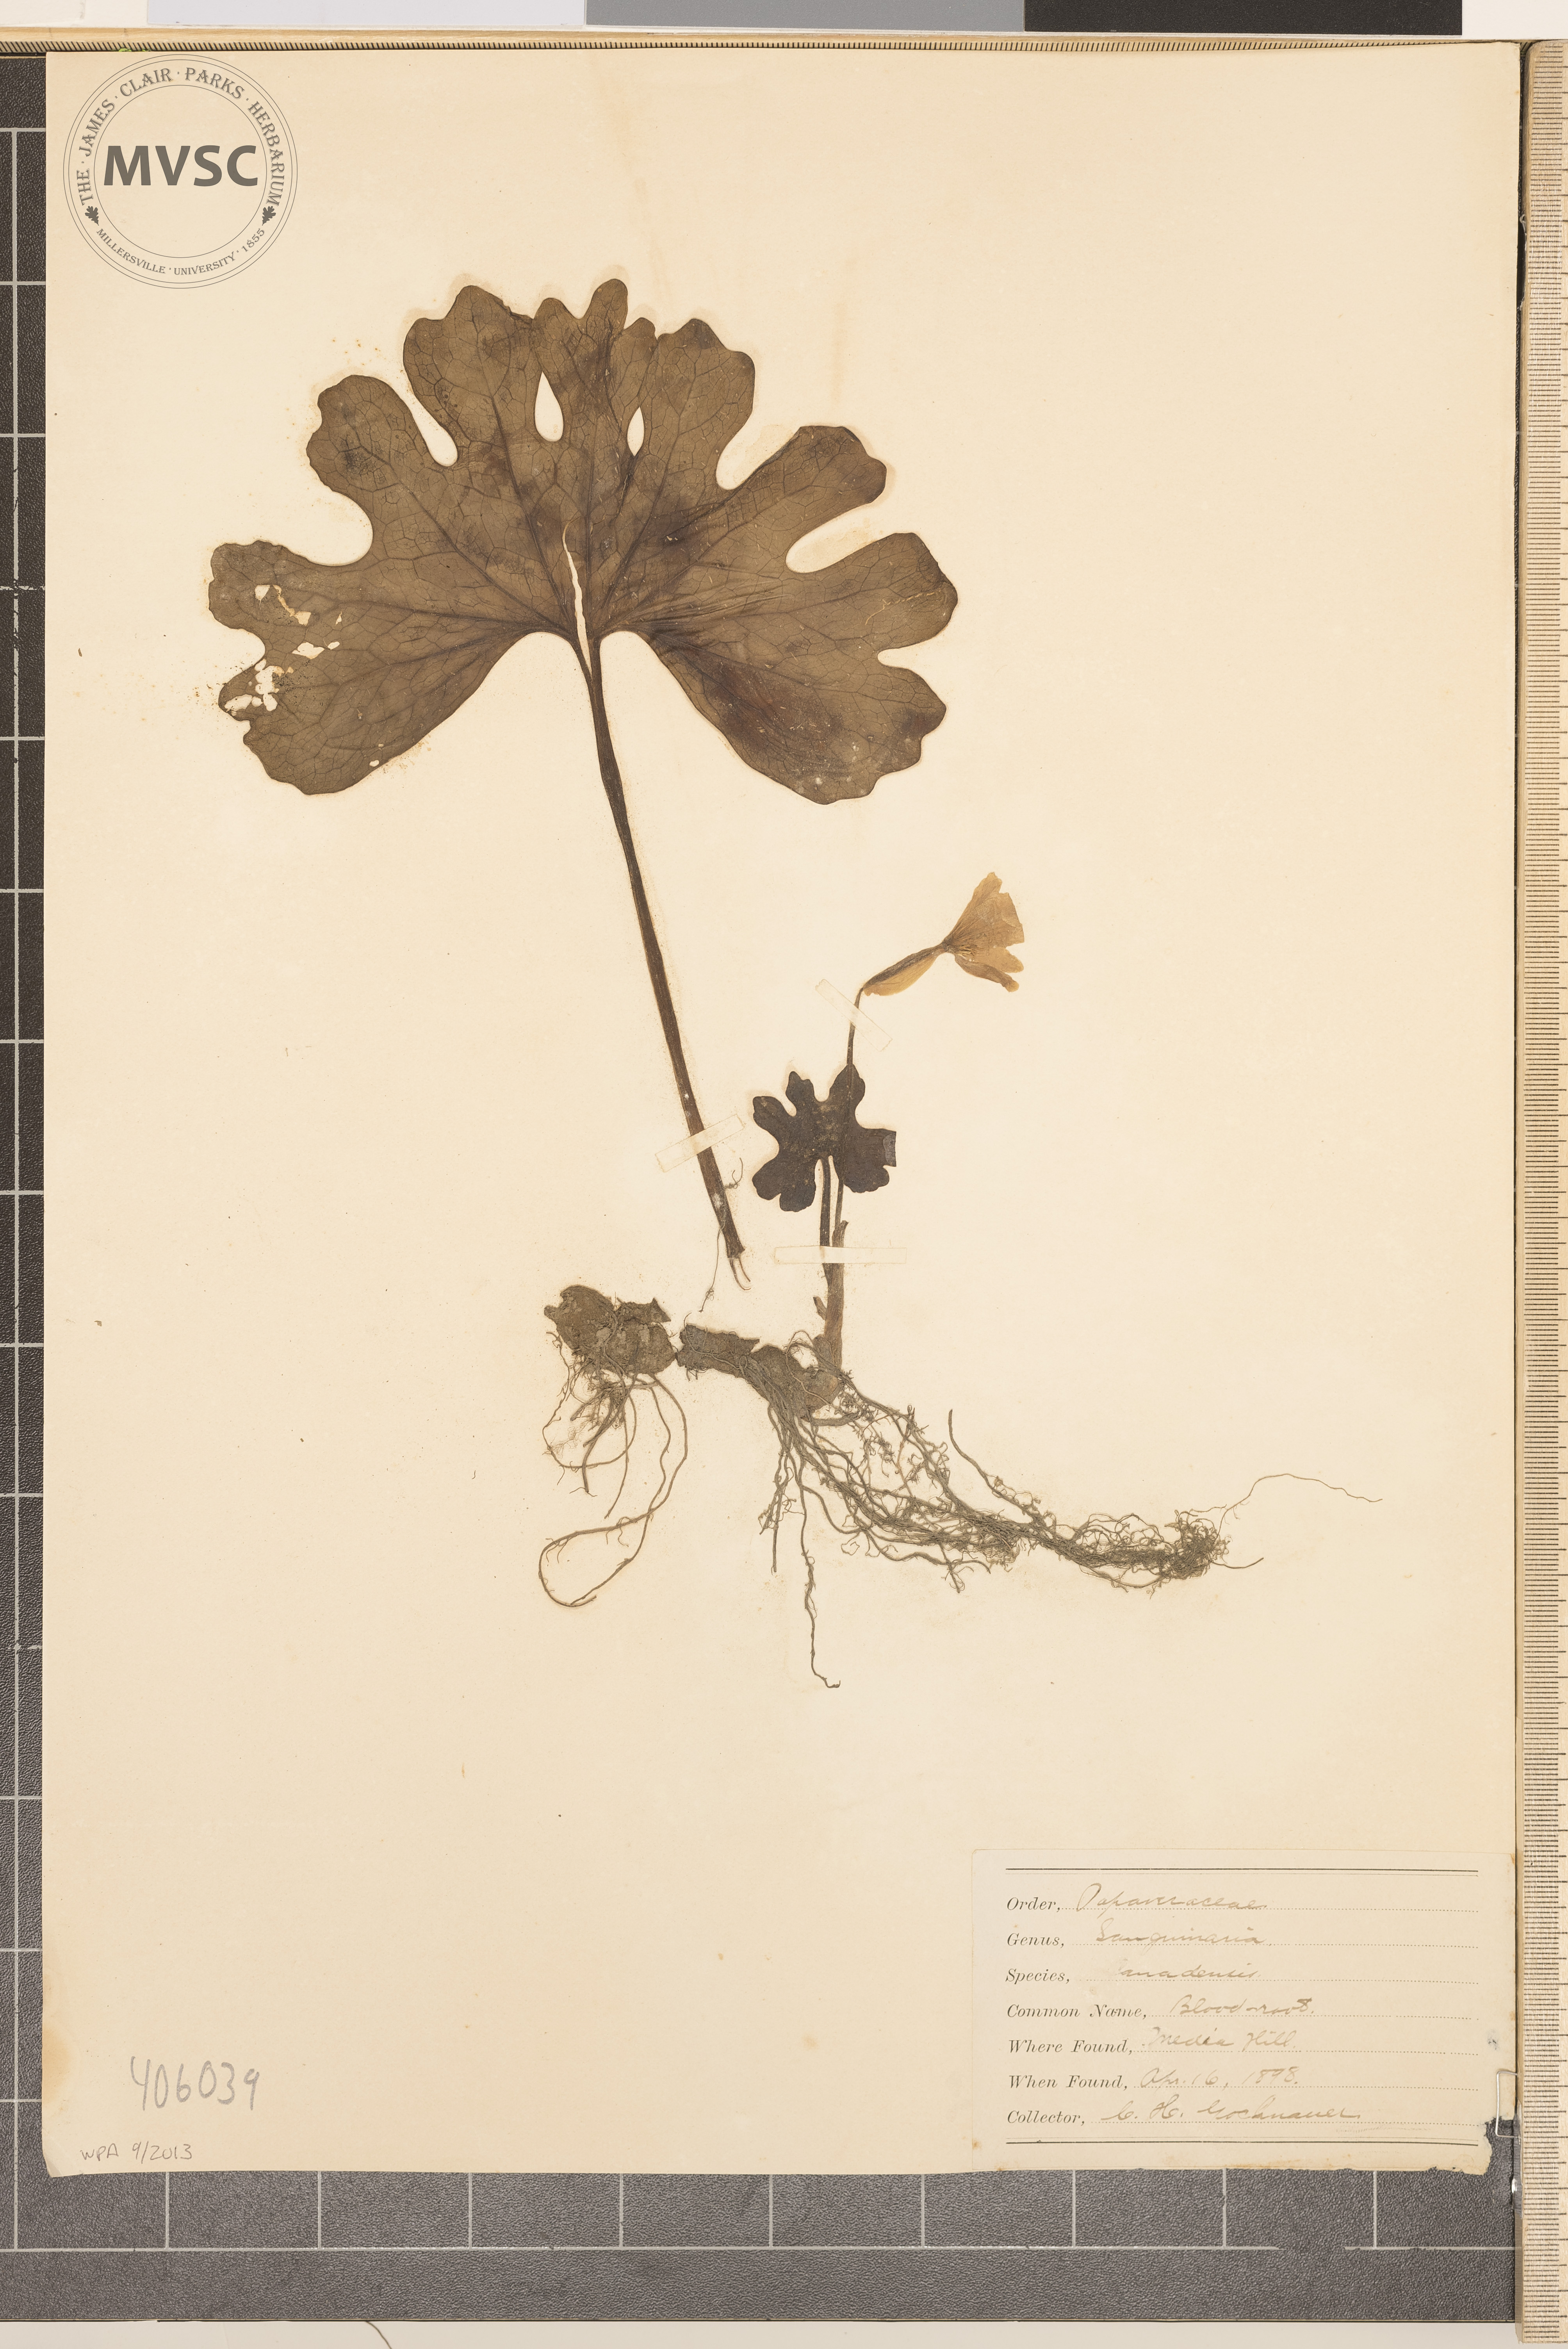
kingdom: Plantae
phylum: Tracheophyta
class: Magnoliopsida
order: Ranunculales
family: Papaveraceae
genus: Sanguinaria
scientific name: Sanguinaria canadensis
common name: Bloodroot
